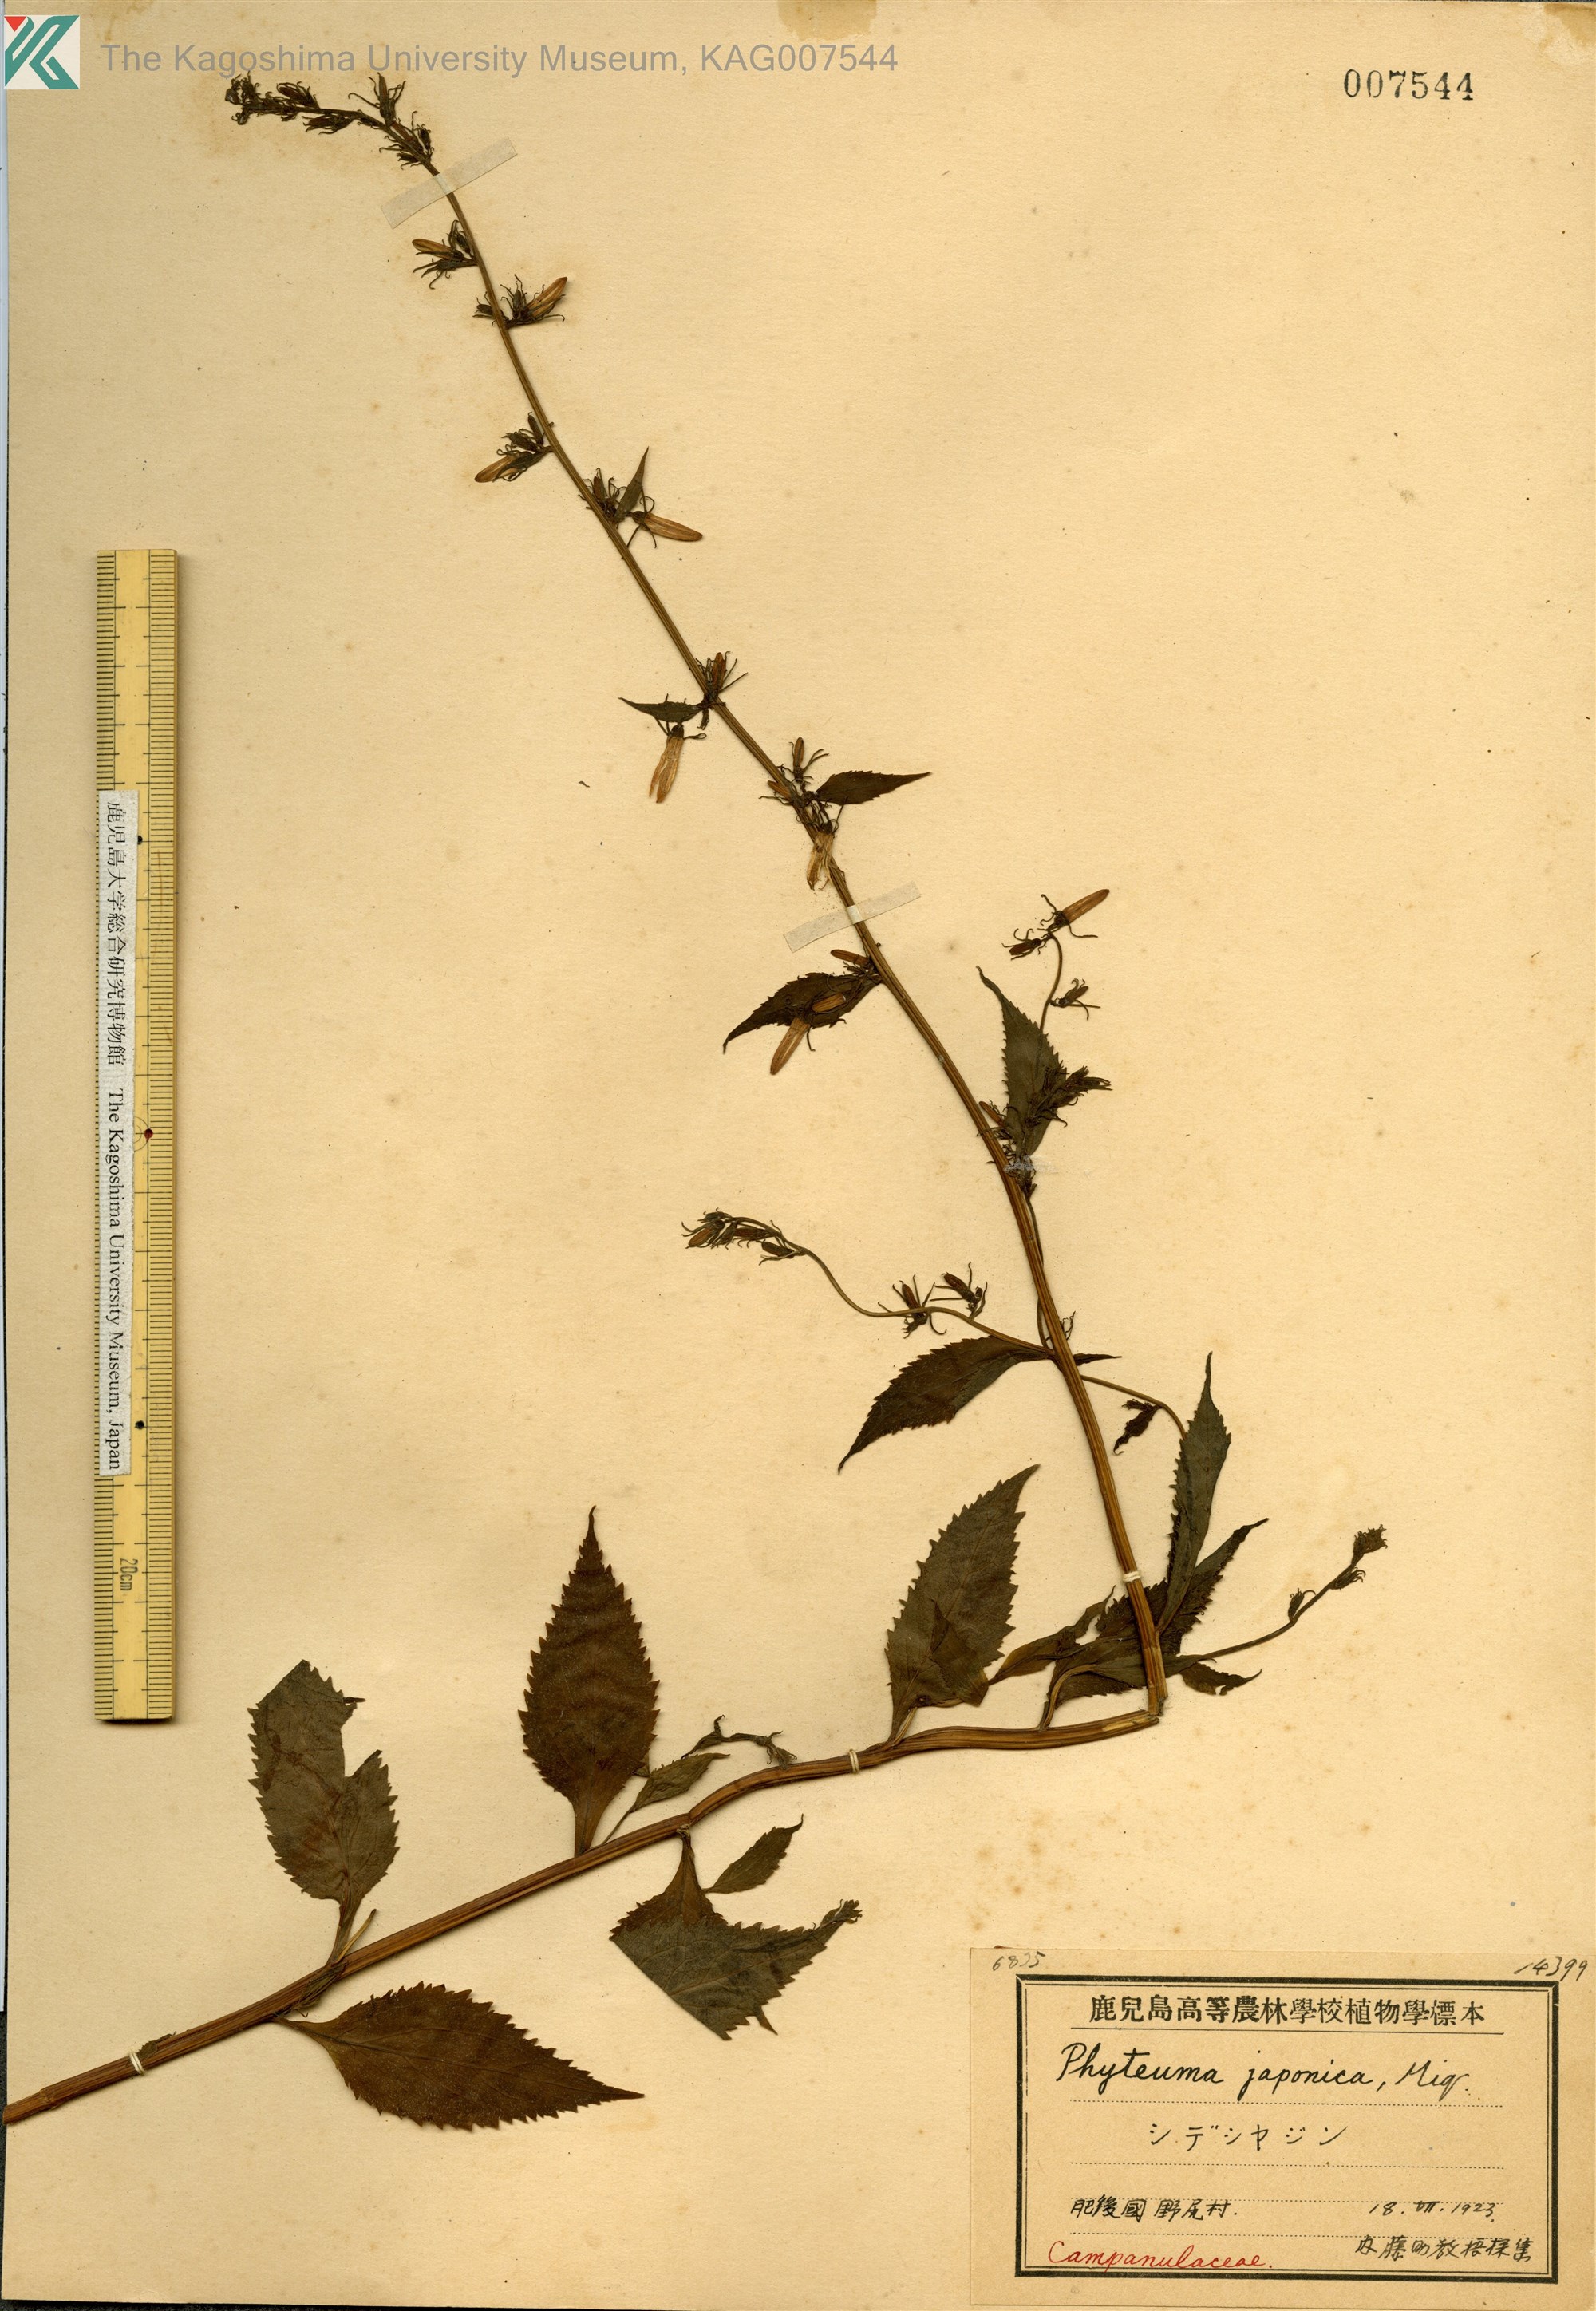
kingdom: Plantae
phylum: Tracheophyta
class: Magnoliopsida
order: Asterales
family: Campanulaceae
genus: Asyneuma
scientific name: Asyneuma japonicum
